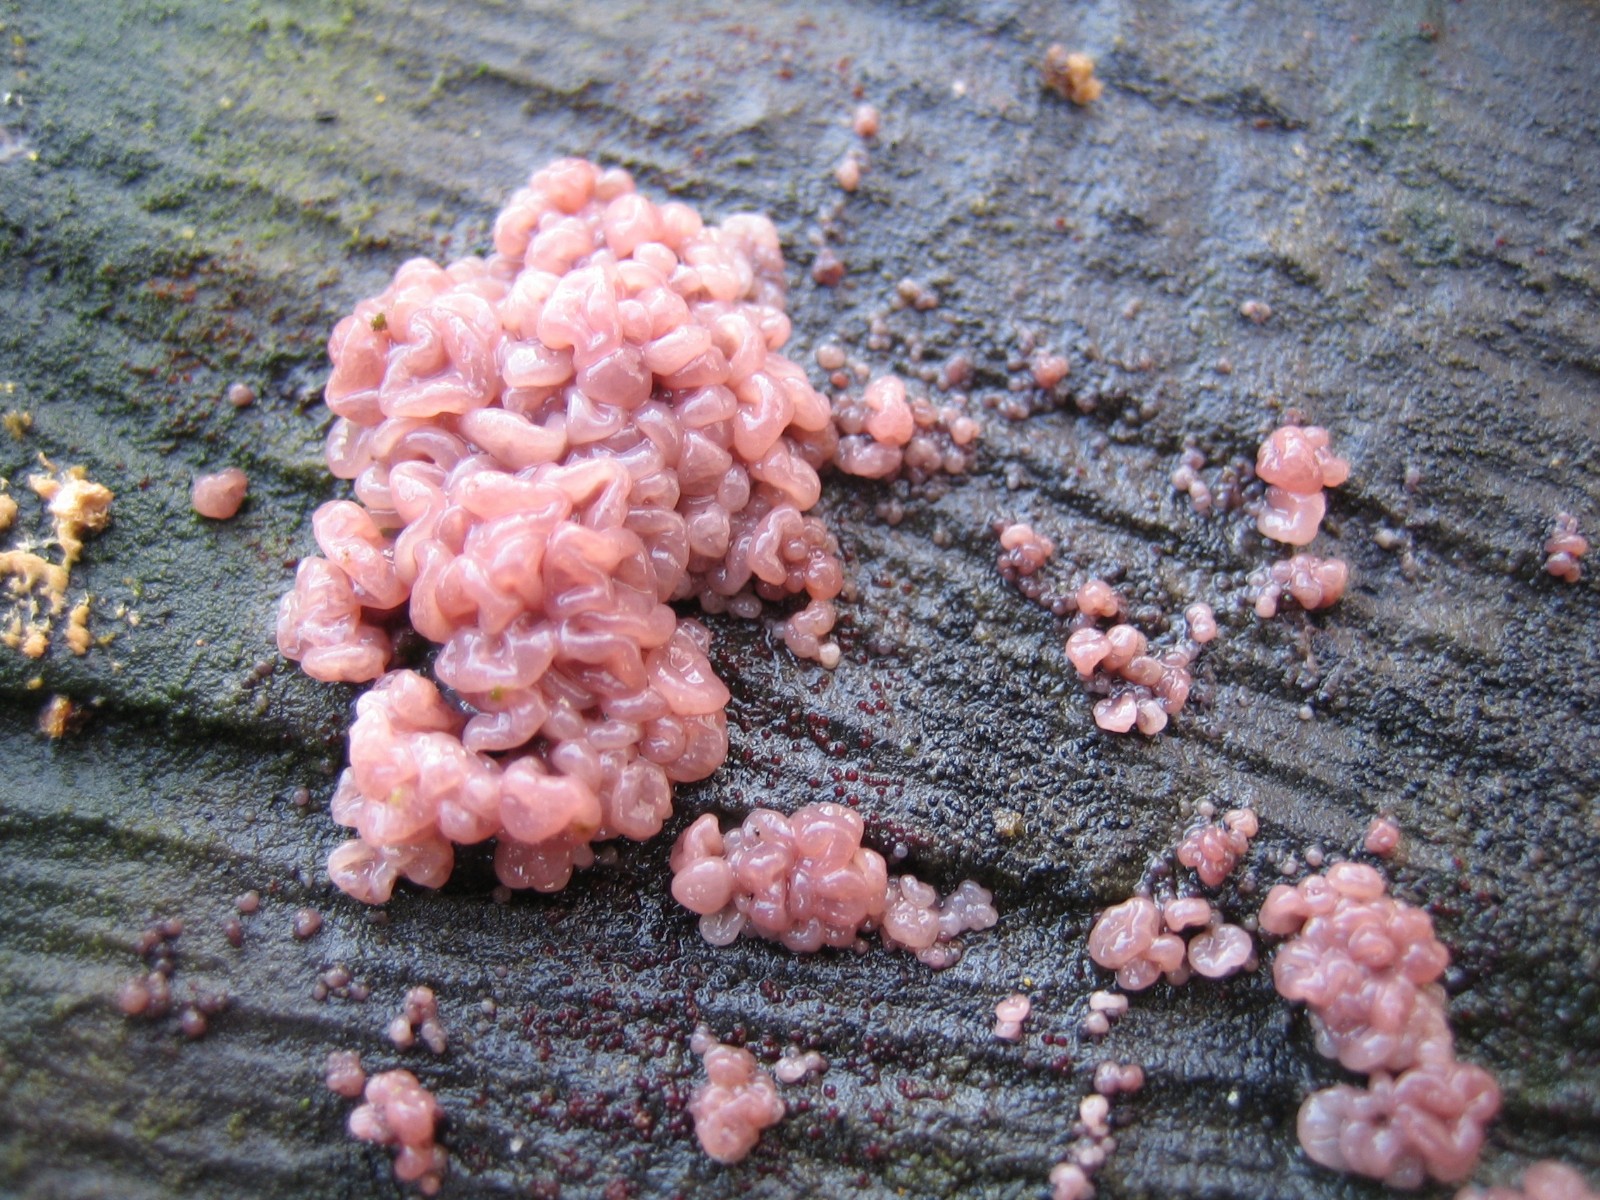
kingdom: Fungi
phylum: Ascomycota
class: Leotiomycetes
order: Helotiales
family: Gelatinodiscaceae
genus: Ascocoryne
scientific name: Ascocoryne sarcoides
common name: rødlilla sejskive
